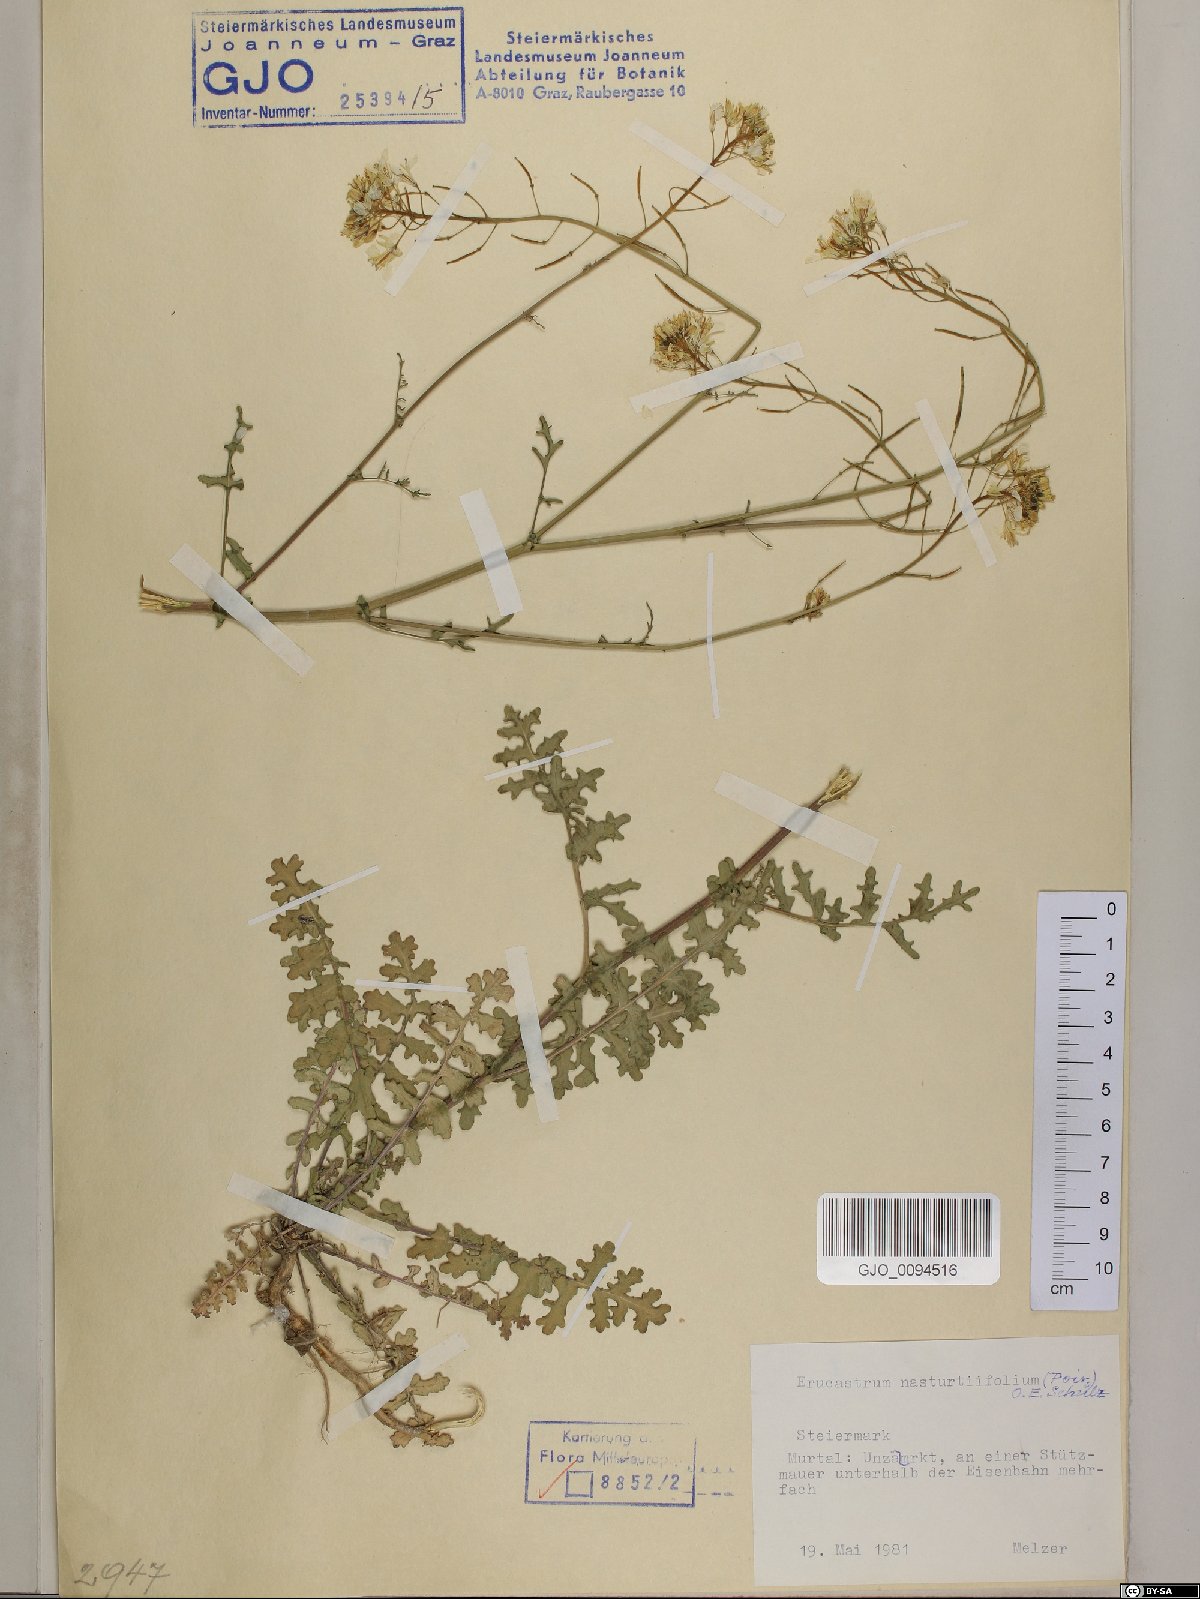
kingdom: Plantae
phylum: Tracheophyta
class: Magnoliopsida
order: Brassicales
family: Brassicaceae
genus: Erucastrum
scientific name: Erucastrum nasturtiifolium
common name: Watercress-leaf rocket
